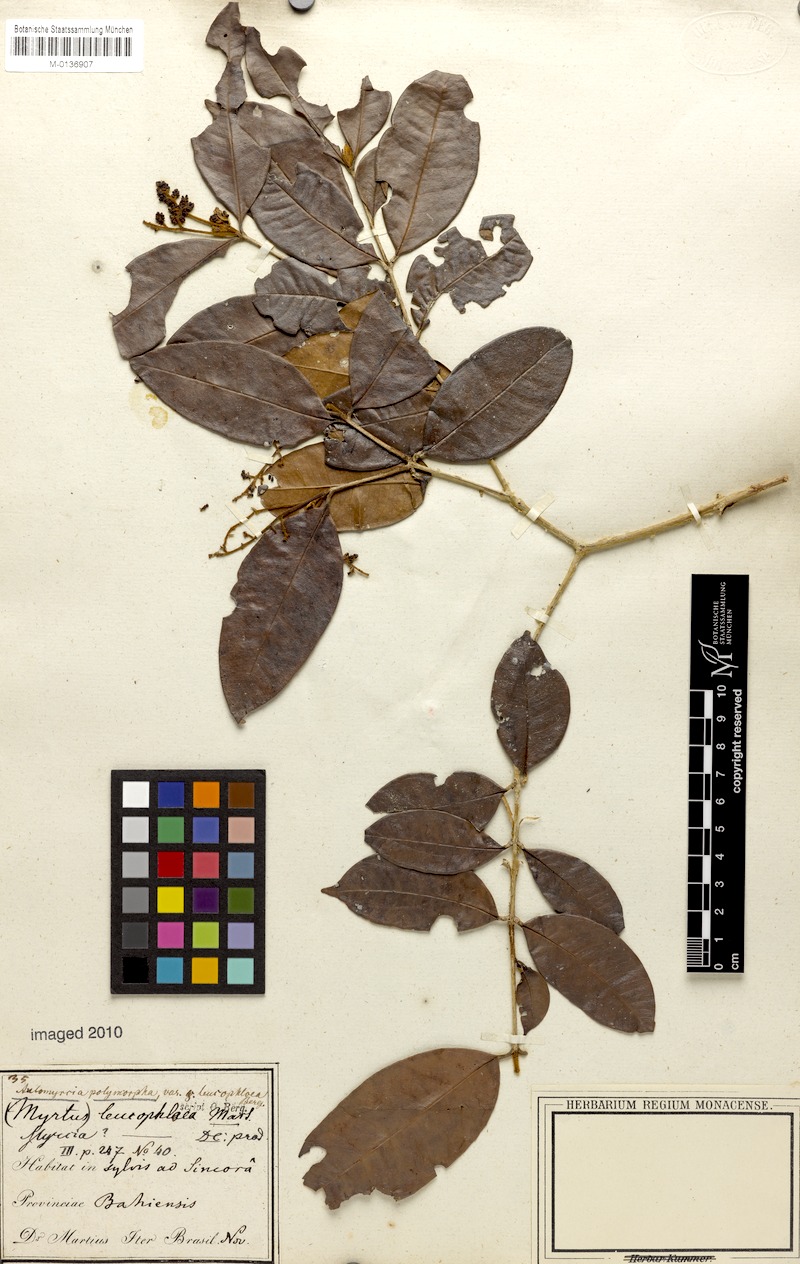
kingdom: Plantae
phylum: Tracheophyta
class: Magnoliopsida
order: Myrtales
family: Myrtaceae
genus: Myrcia
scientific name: Myrcia decorticans
